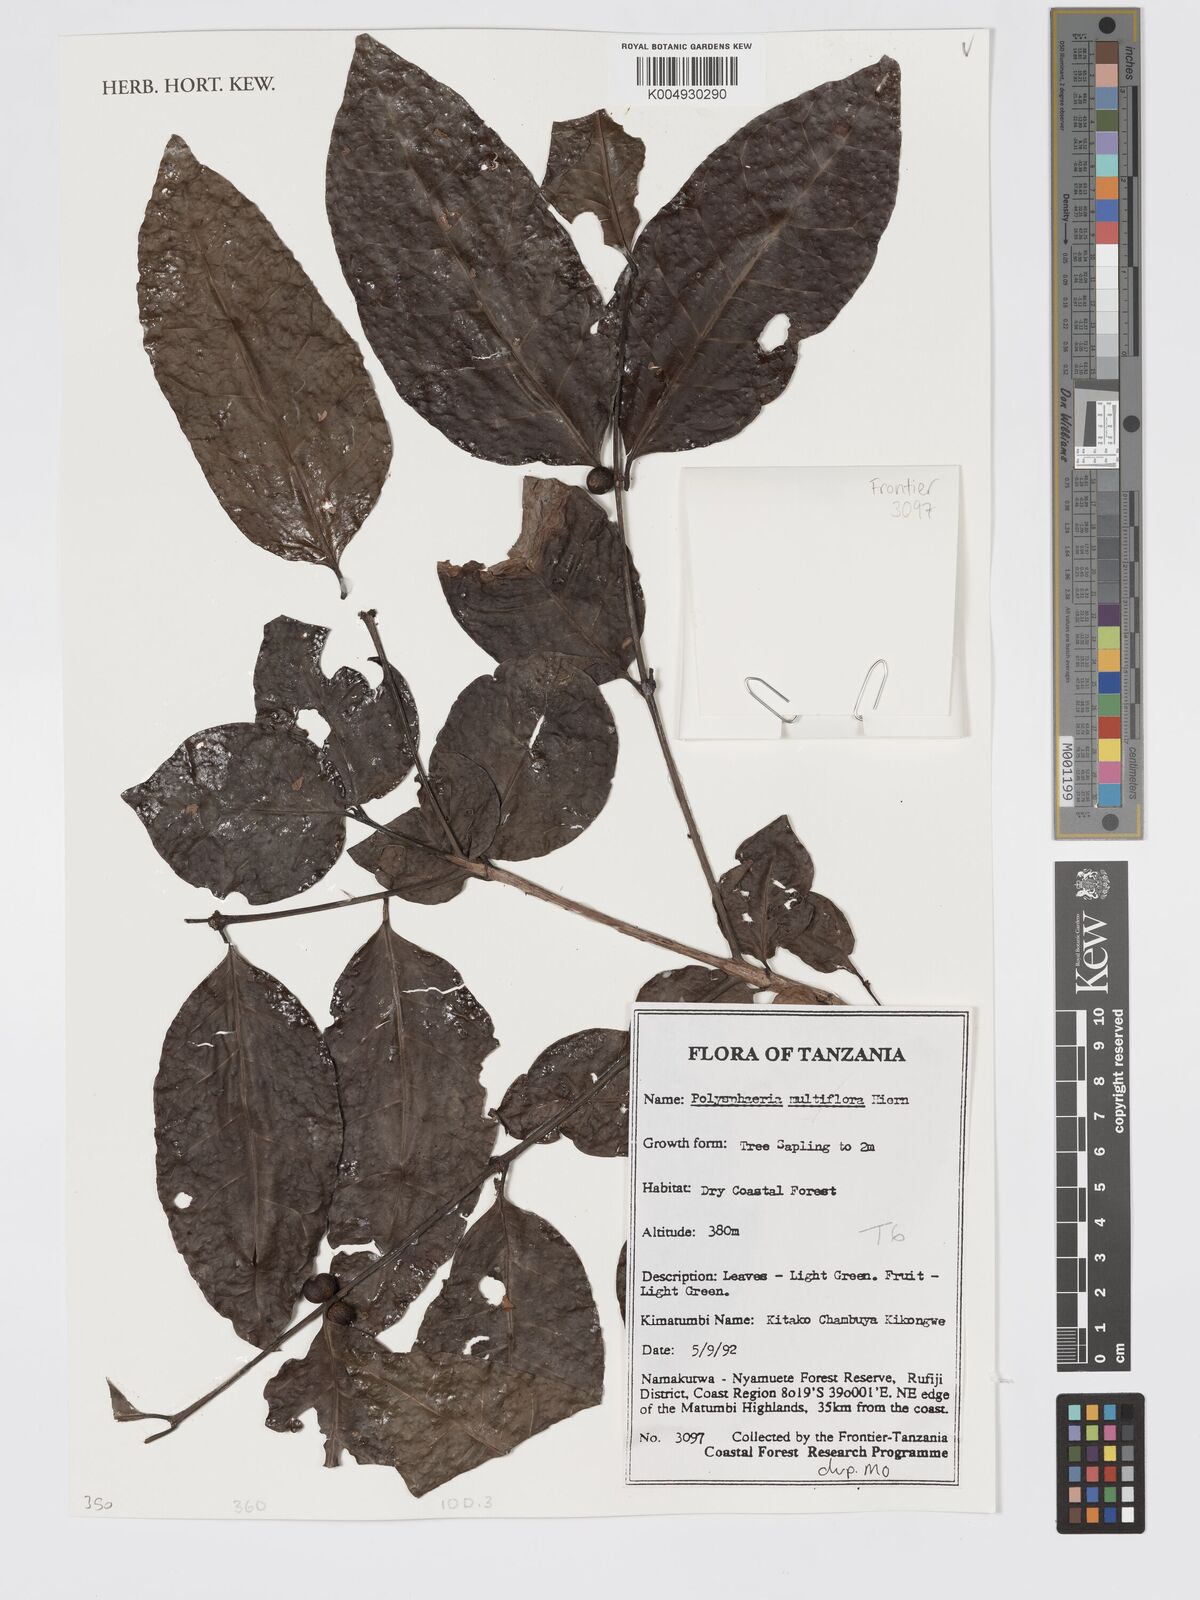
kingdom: Plantae
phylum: Tracheophyta
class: Magnoliopsida
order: Gentianales
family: Rubiaceae
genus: Polysphaeria
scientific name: Polysphaeria multiflora
